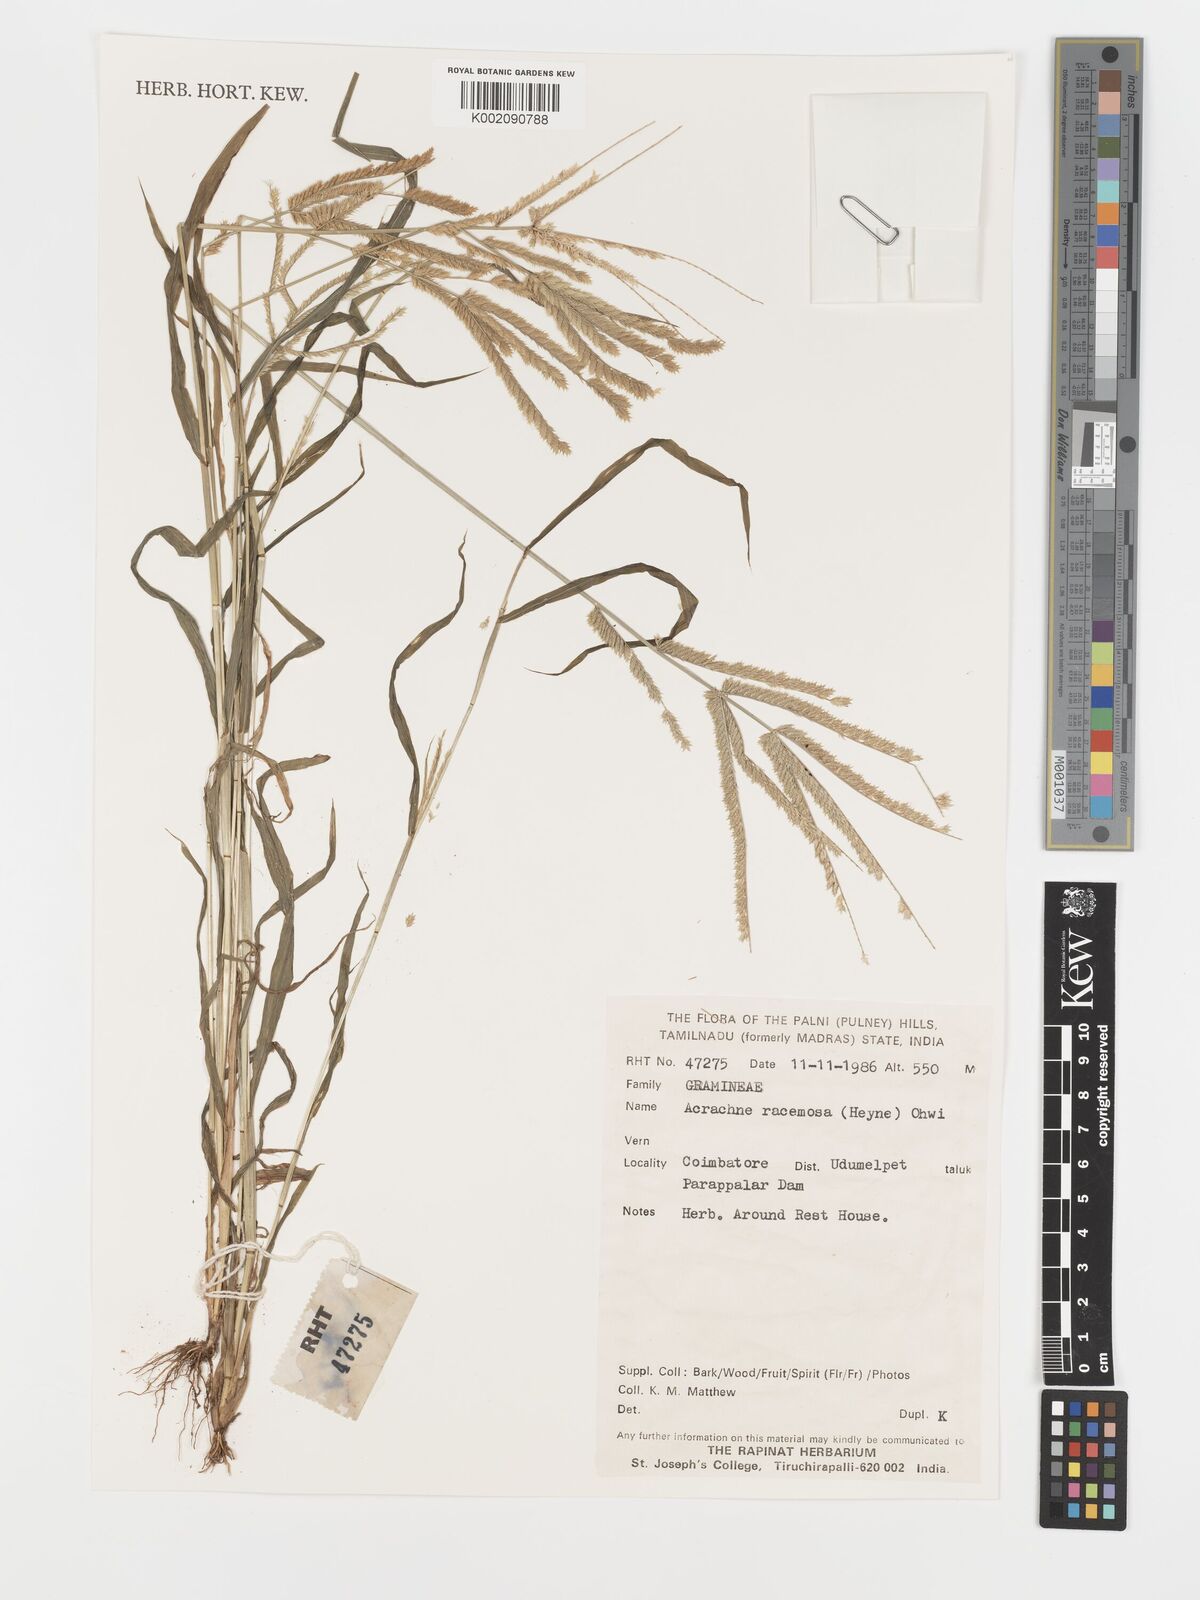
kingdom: Plantae
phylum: Tracheophyta
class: Liliopsida
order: Poales
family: Poaceae
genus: Acrachne
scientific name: Acrachne racemosa
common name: Goosegrass
